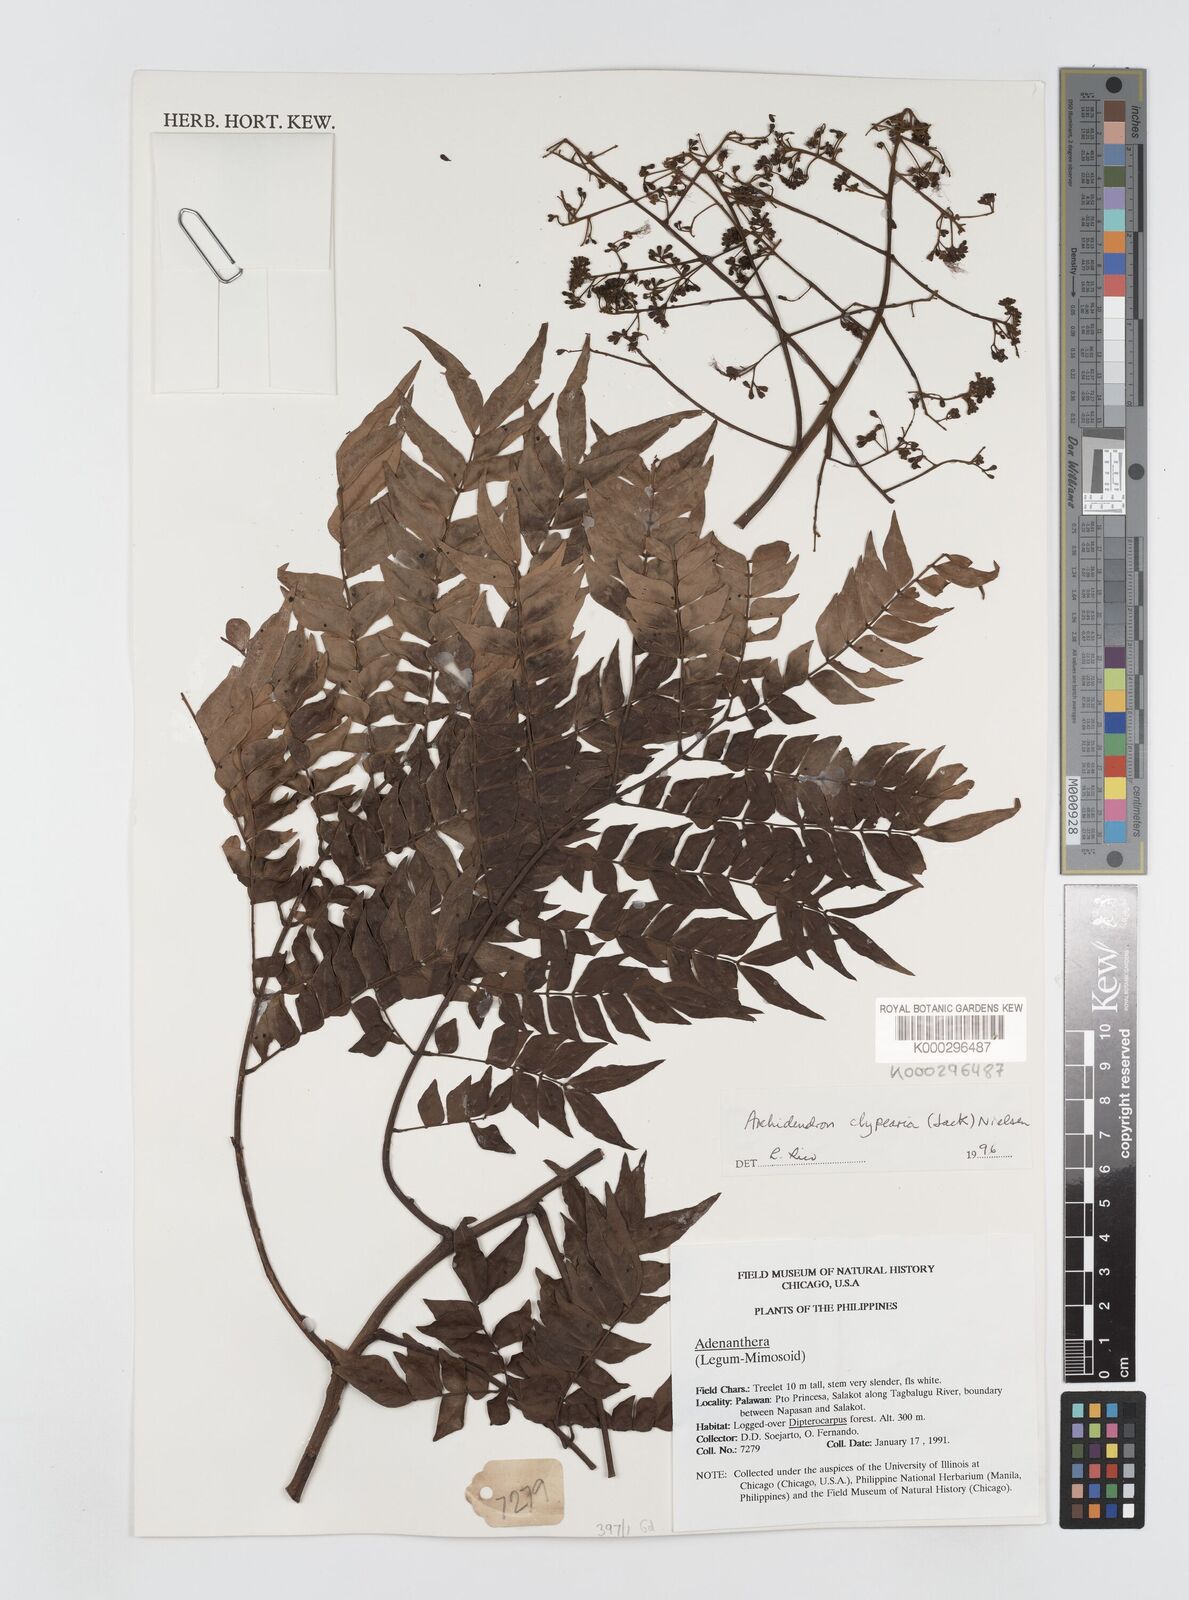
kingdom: Plantae
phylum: Tracheophyta
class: Magnoliopsida
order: Fabales
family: Fabaceae
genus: Archidendron
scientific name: Archidendron clypearia
